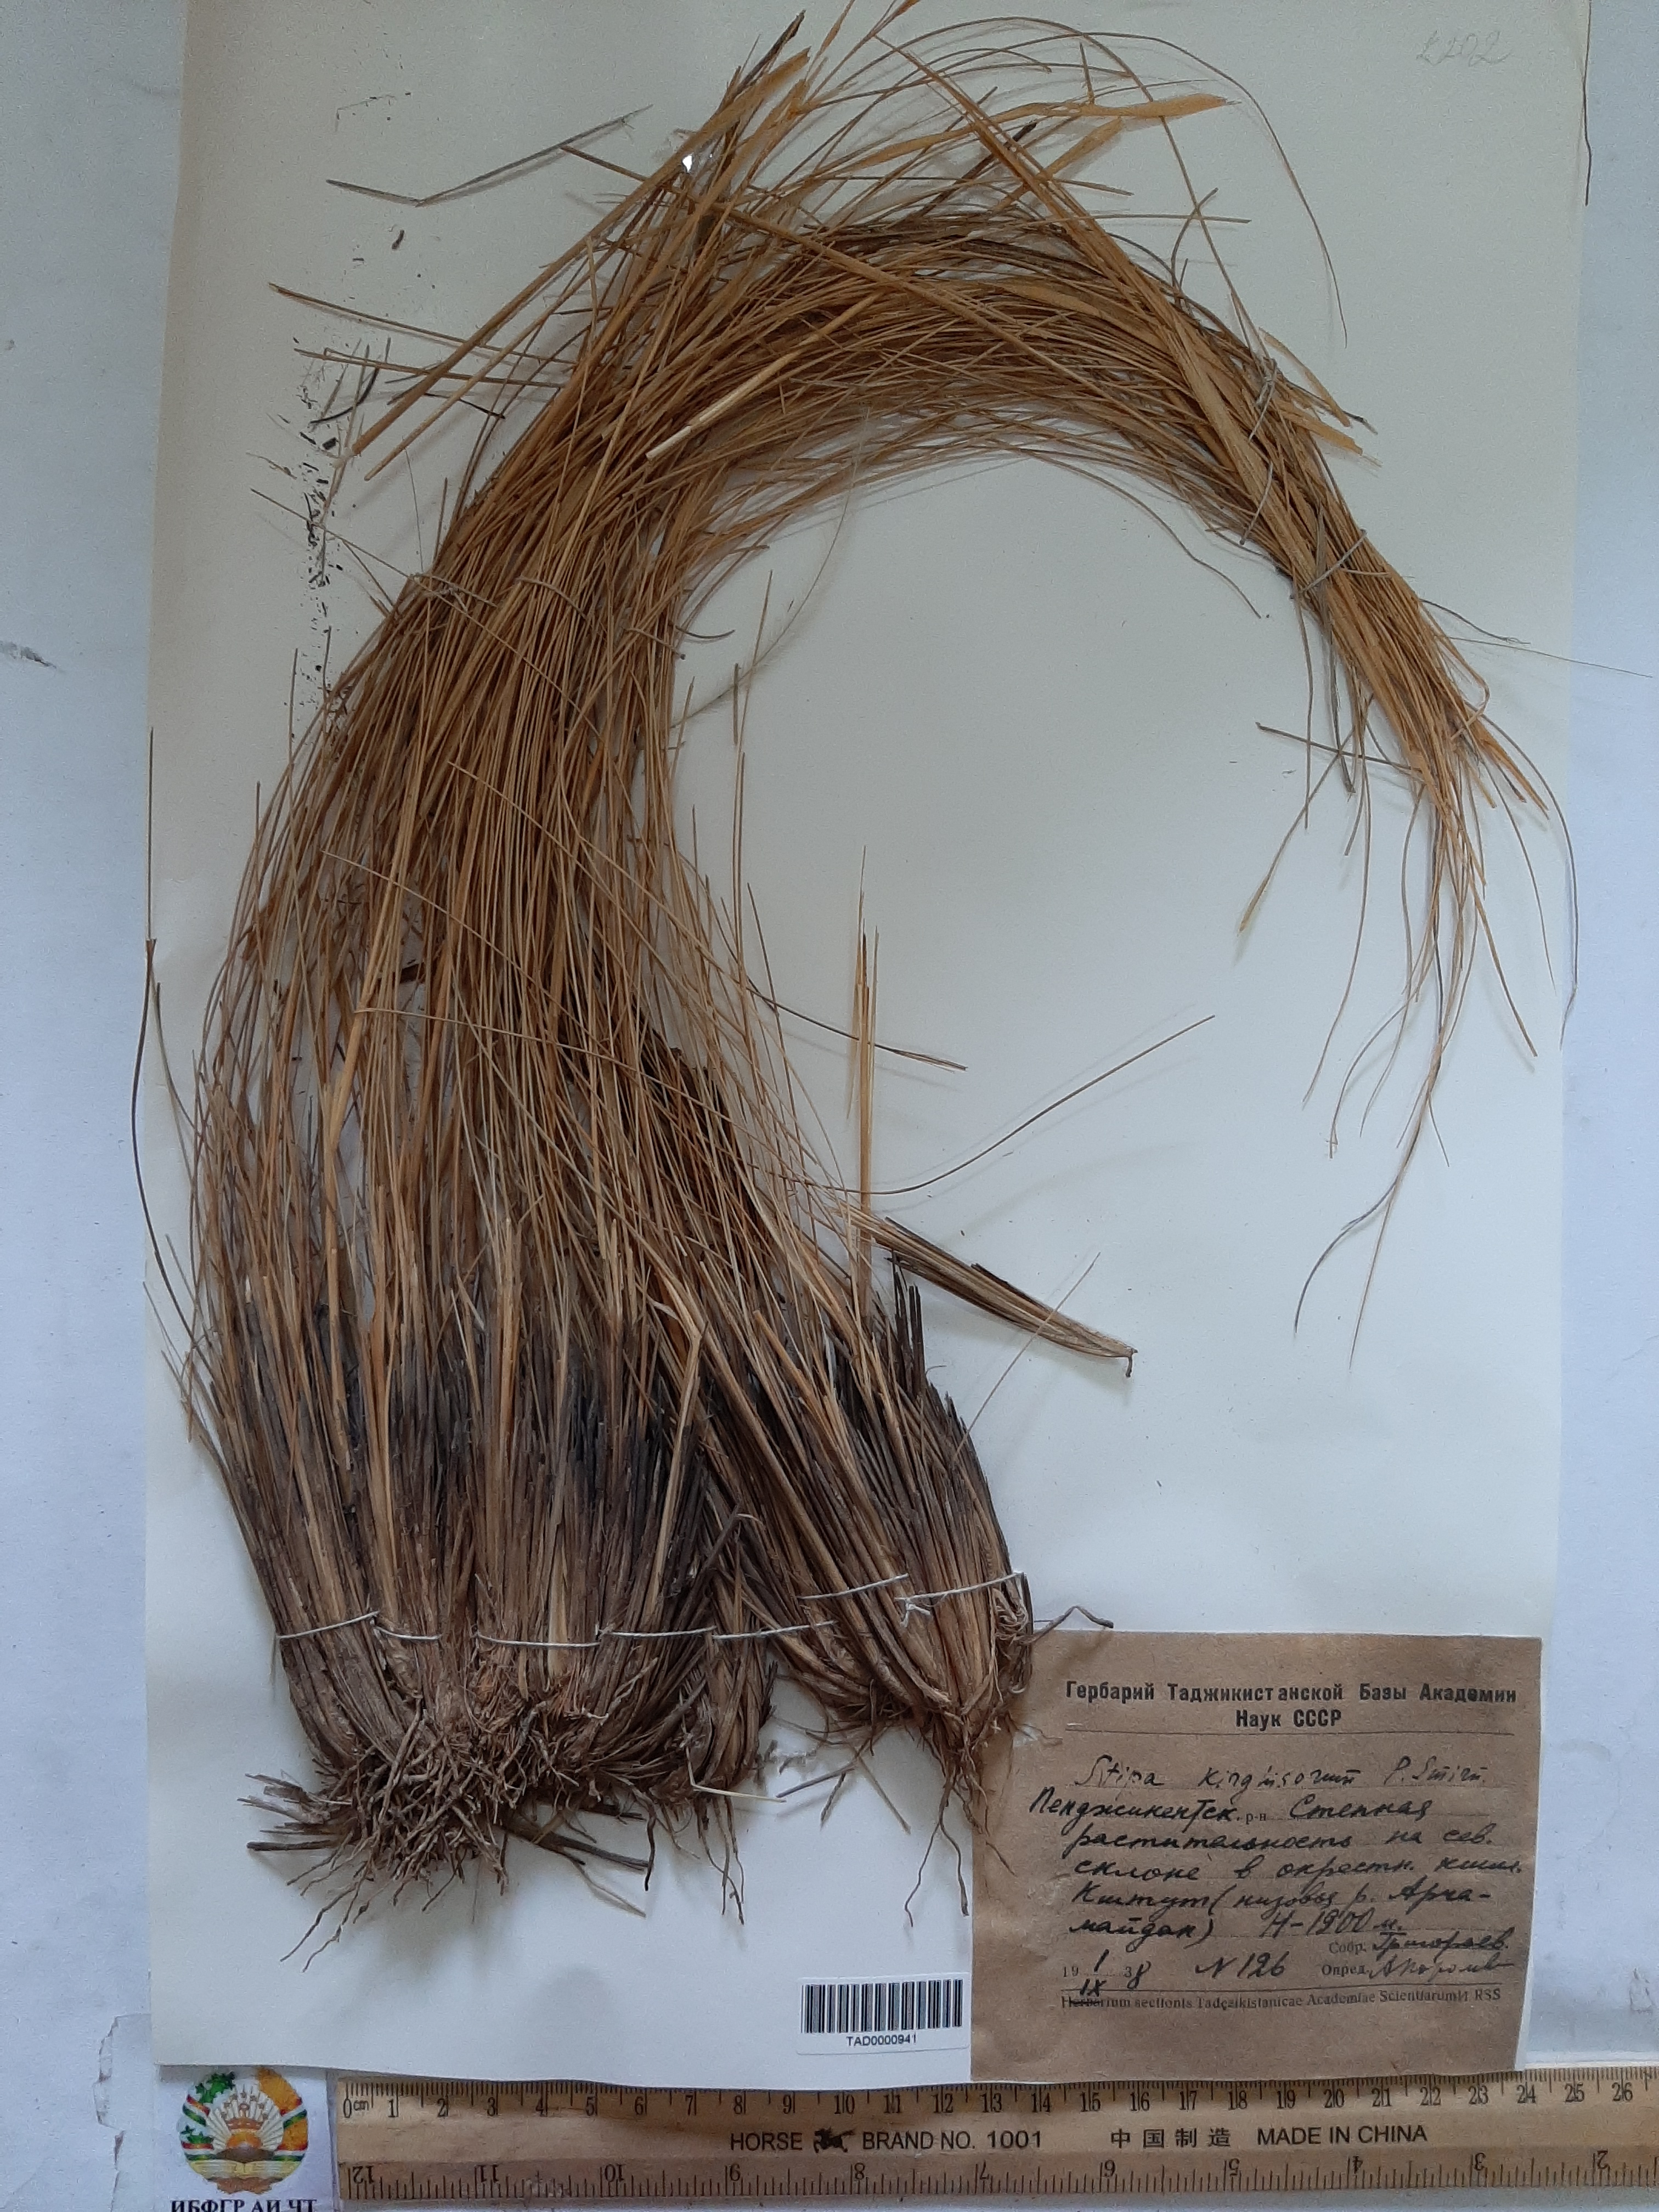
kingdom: Plantae
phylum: Tracheophyta
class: Liliopsida
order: Poales
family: Poaceae
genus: Stipa
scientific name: Stipa kirghisorum
